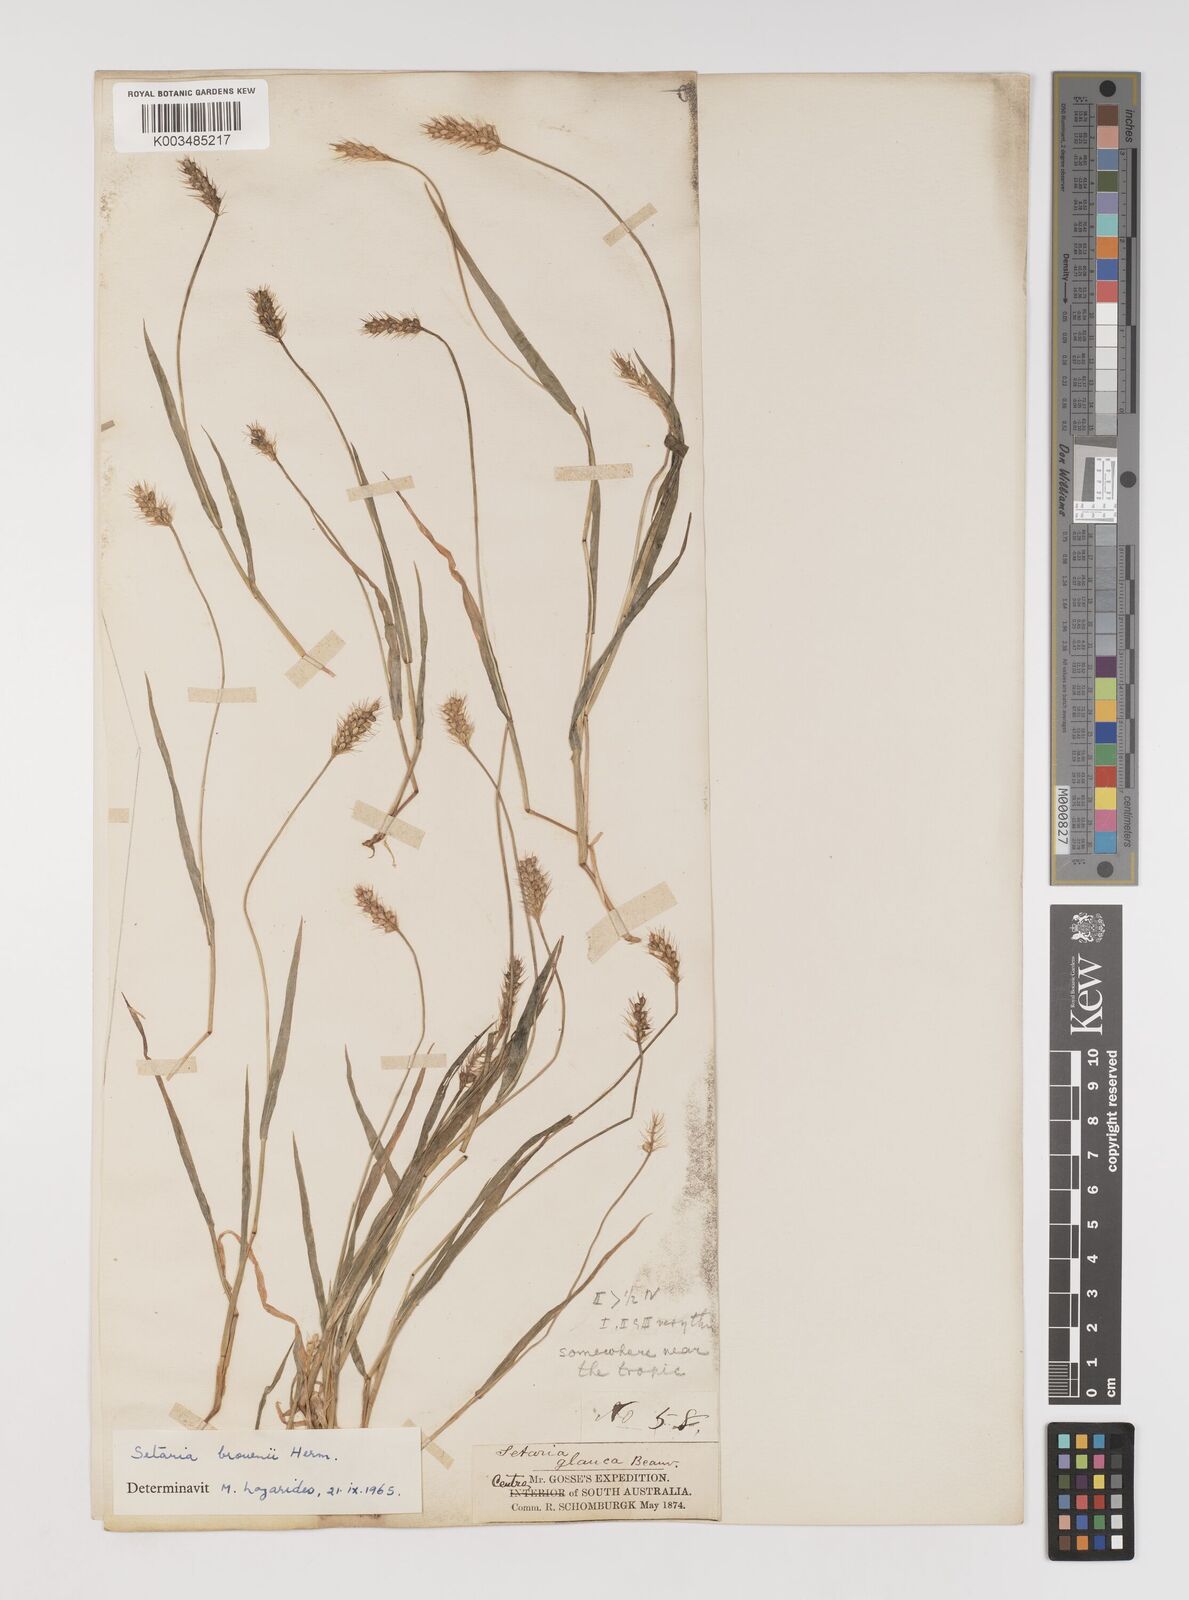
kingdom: Plantae
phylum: Tracheophyta
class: Liliopsida
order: Poales
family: Poaceae
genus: Setaria
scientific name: Setaria surgens
